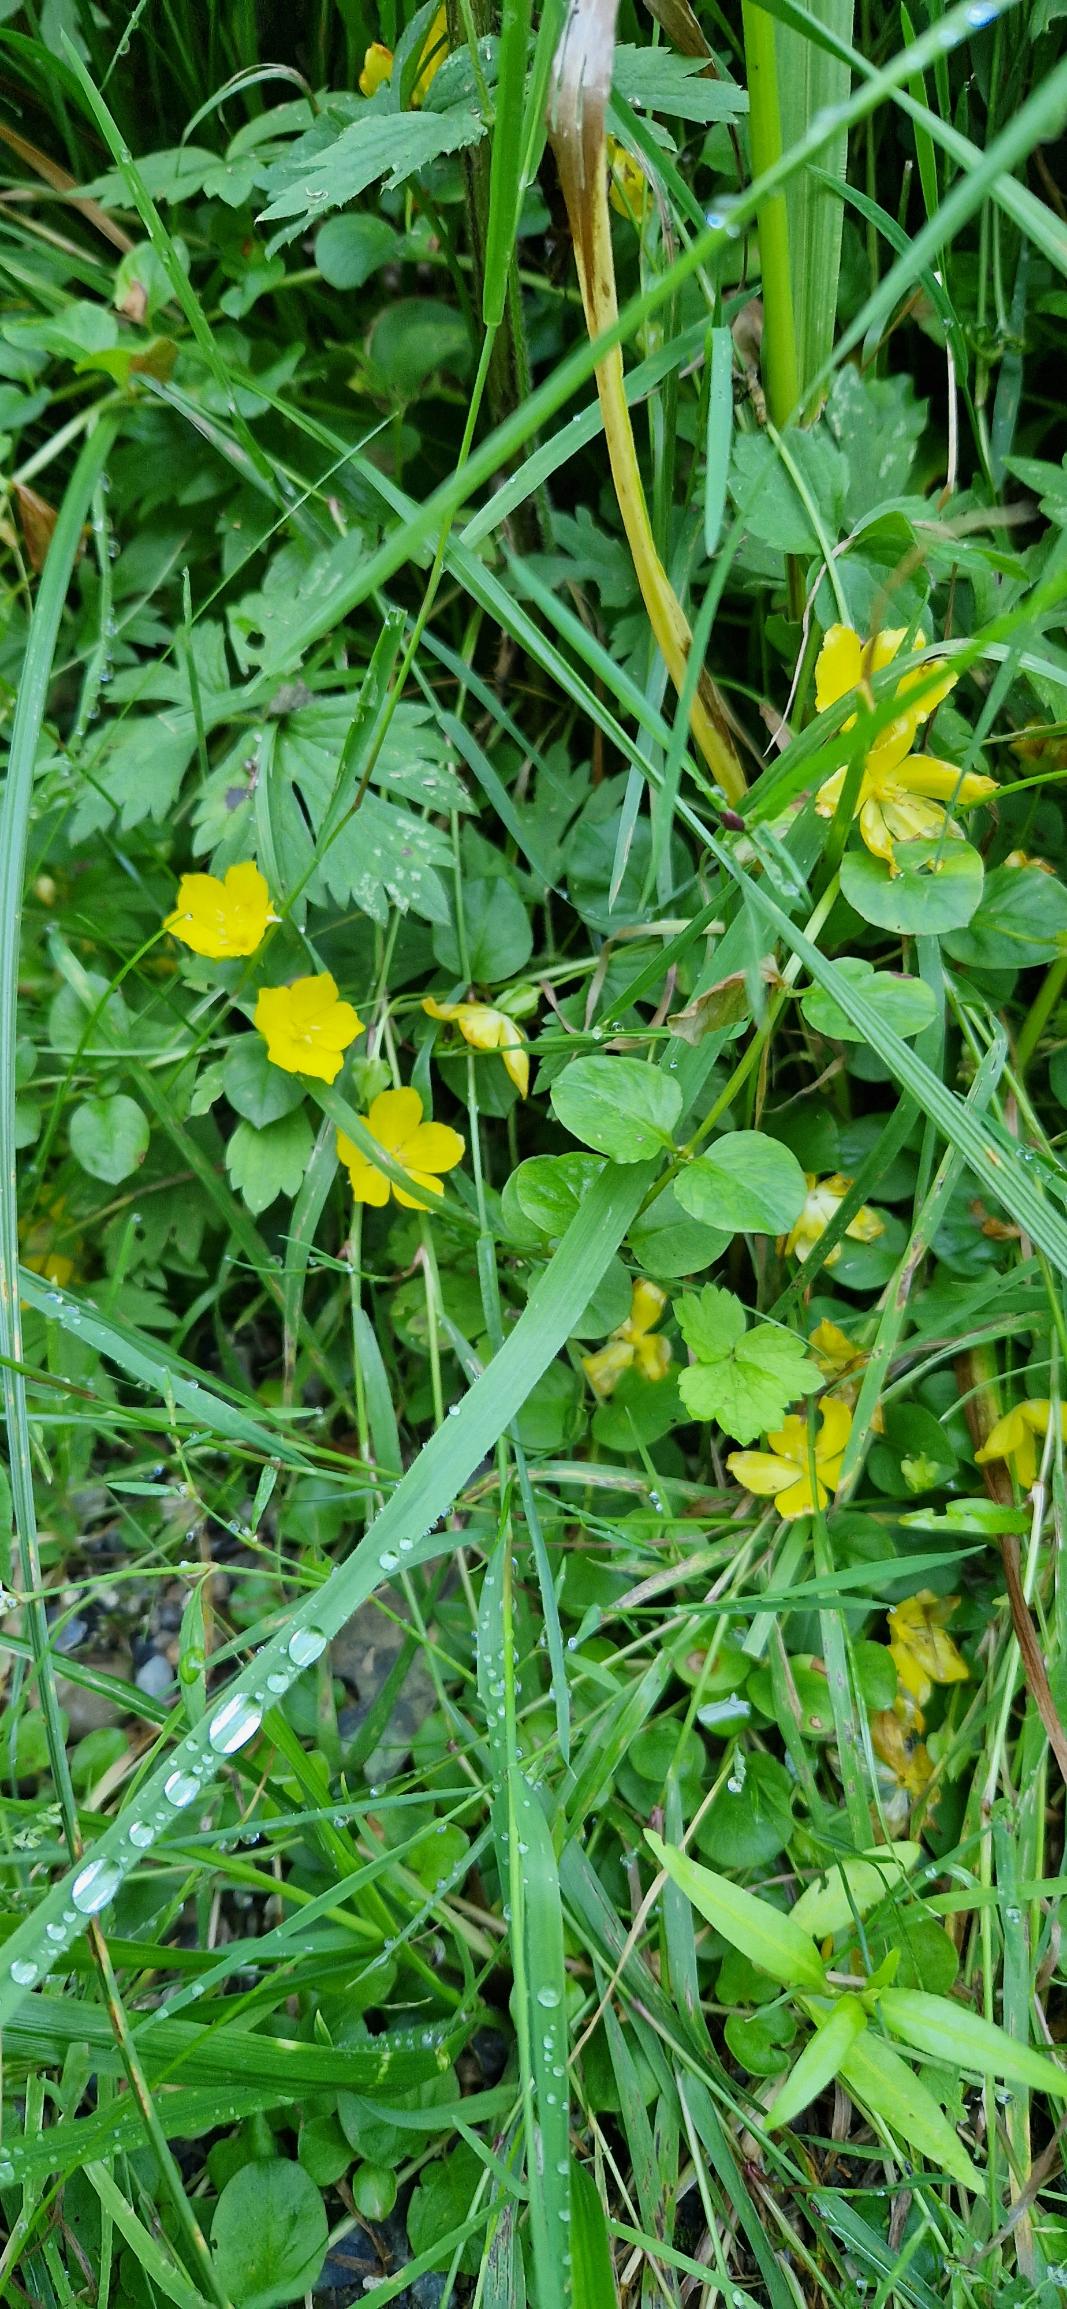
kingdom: Plantae
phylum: Tracheophyta
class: Magnoliopsida
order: Ericales
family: Primulaceae
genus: Lysimachia
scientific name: Lysimachia nummularia
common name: Pengebladet fredløs
